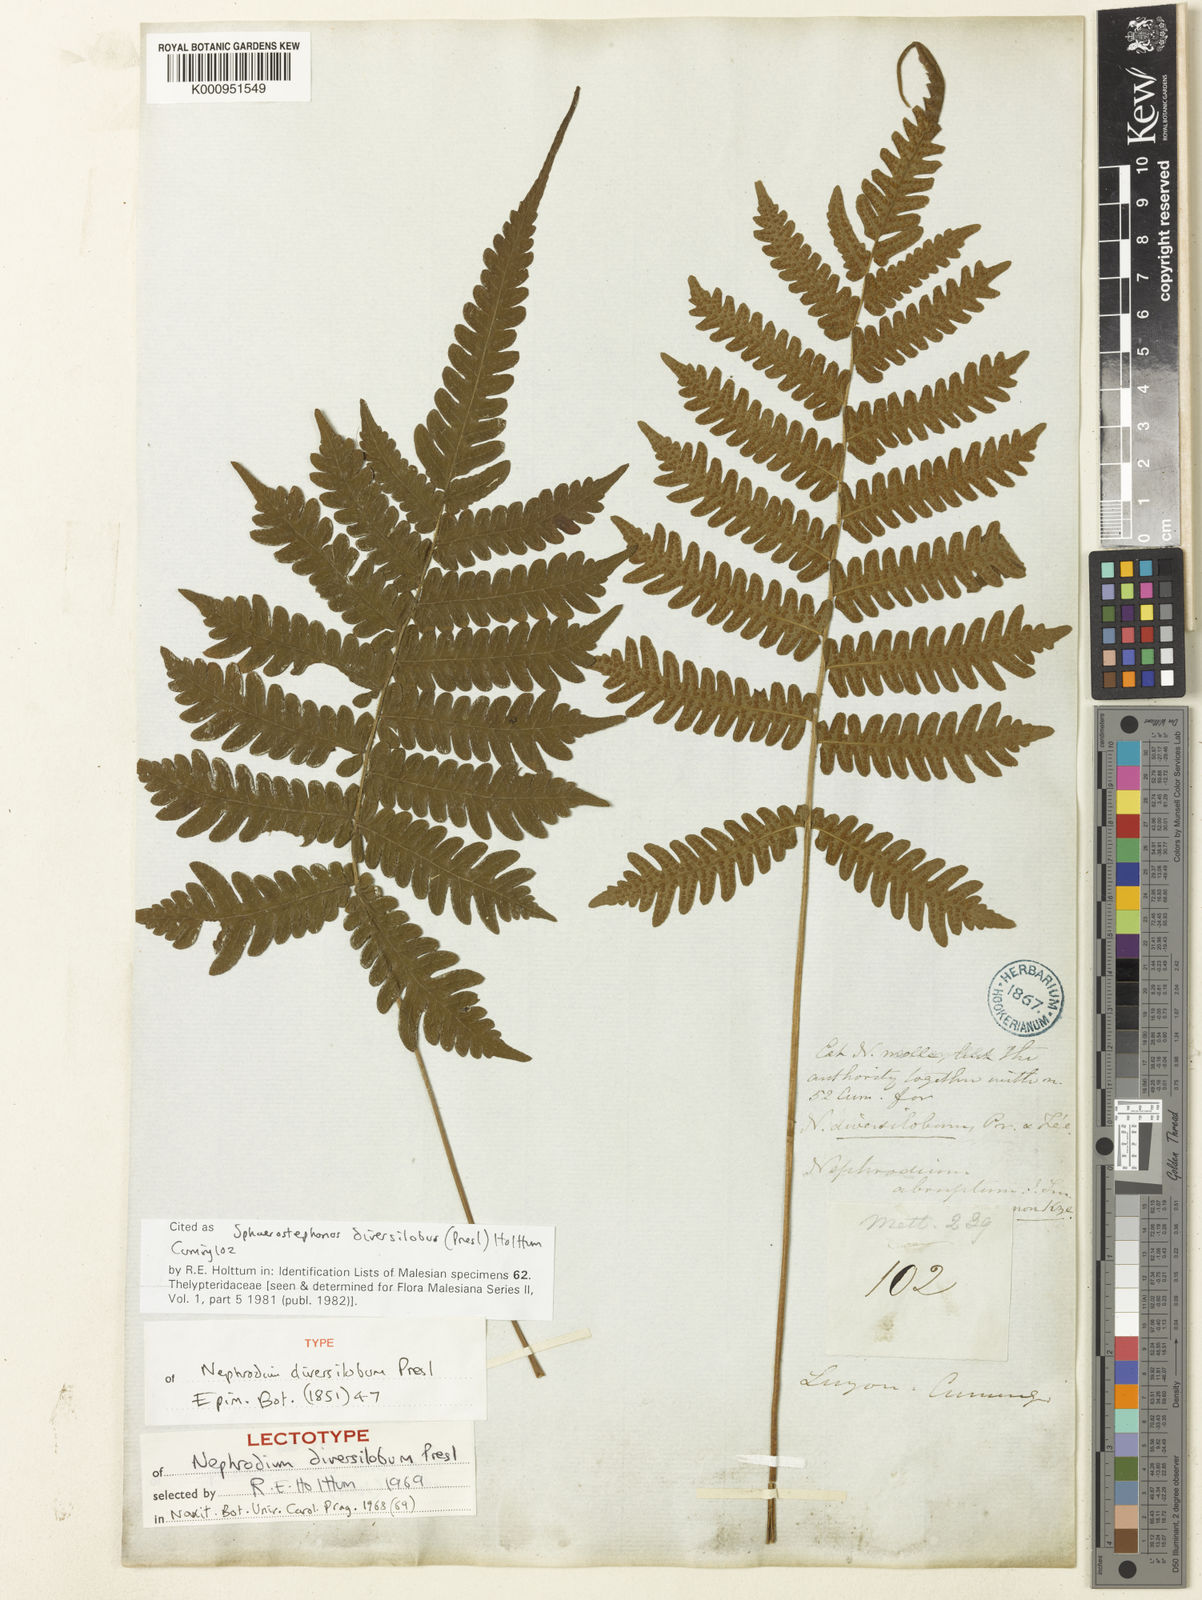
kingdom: Plantae
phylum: Tracheophyta
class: Polypodiopsida
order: Polypodiales
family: Thelypteridaceae
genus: Sphaerostephanos
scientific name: Sphaerostephanos diversilobus
